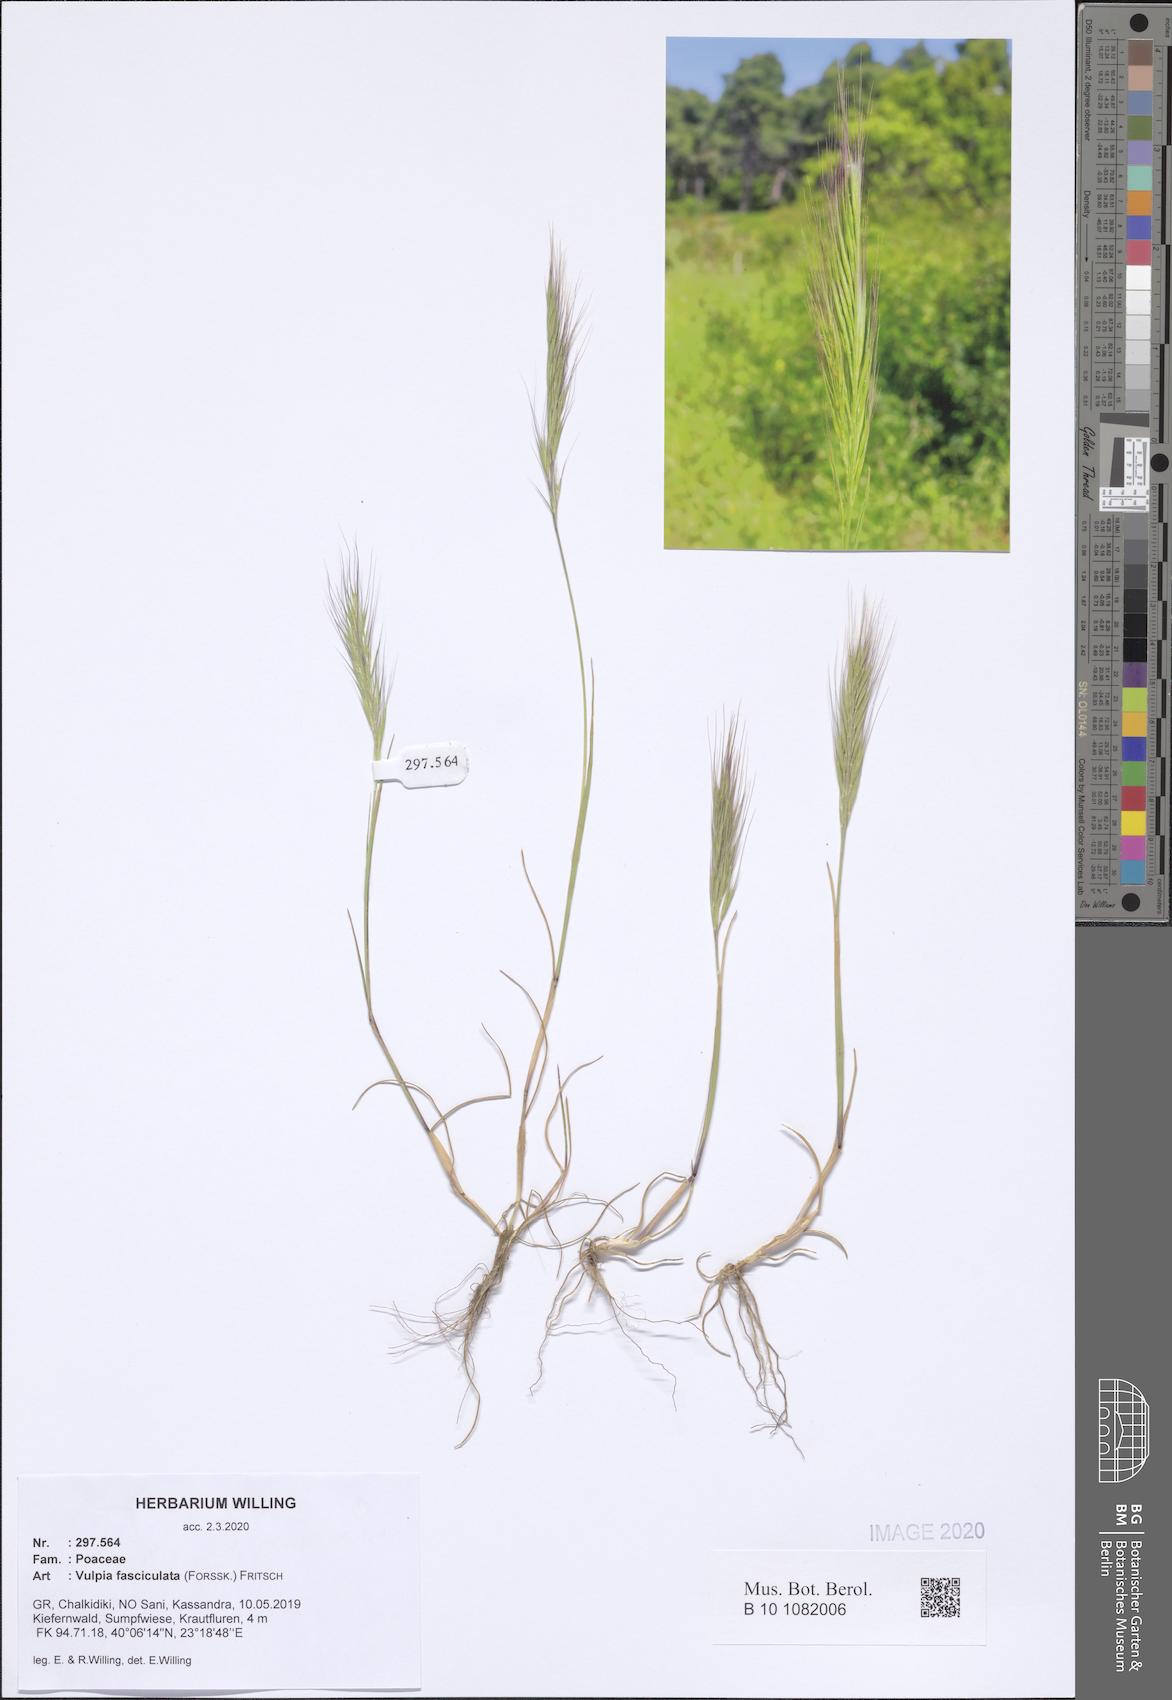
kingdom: Plantae
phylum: Tracheophyta
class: Liliopsida
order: Poales
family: Poaceae
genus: Festuca
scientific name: Festuca fasciculata
